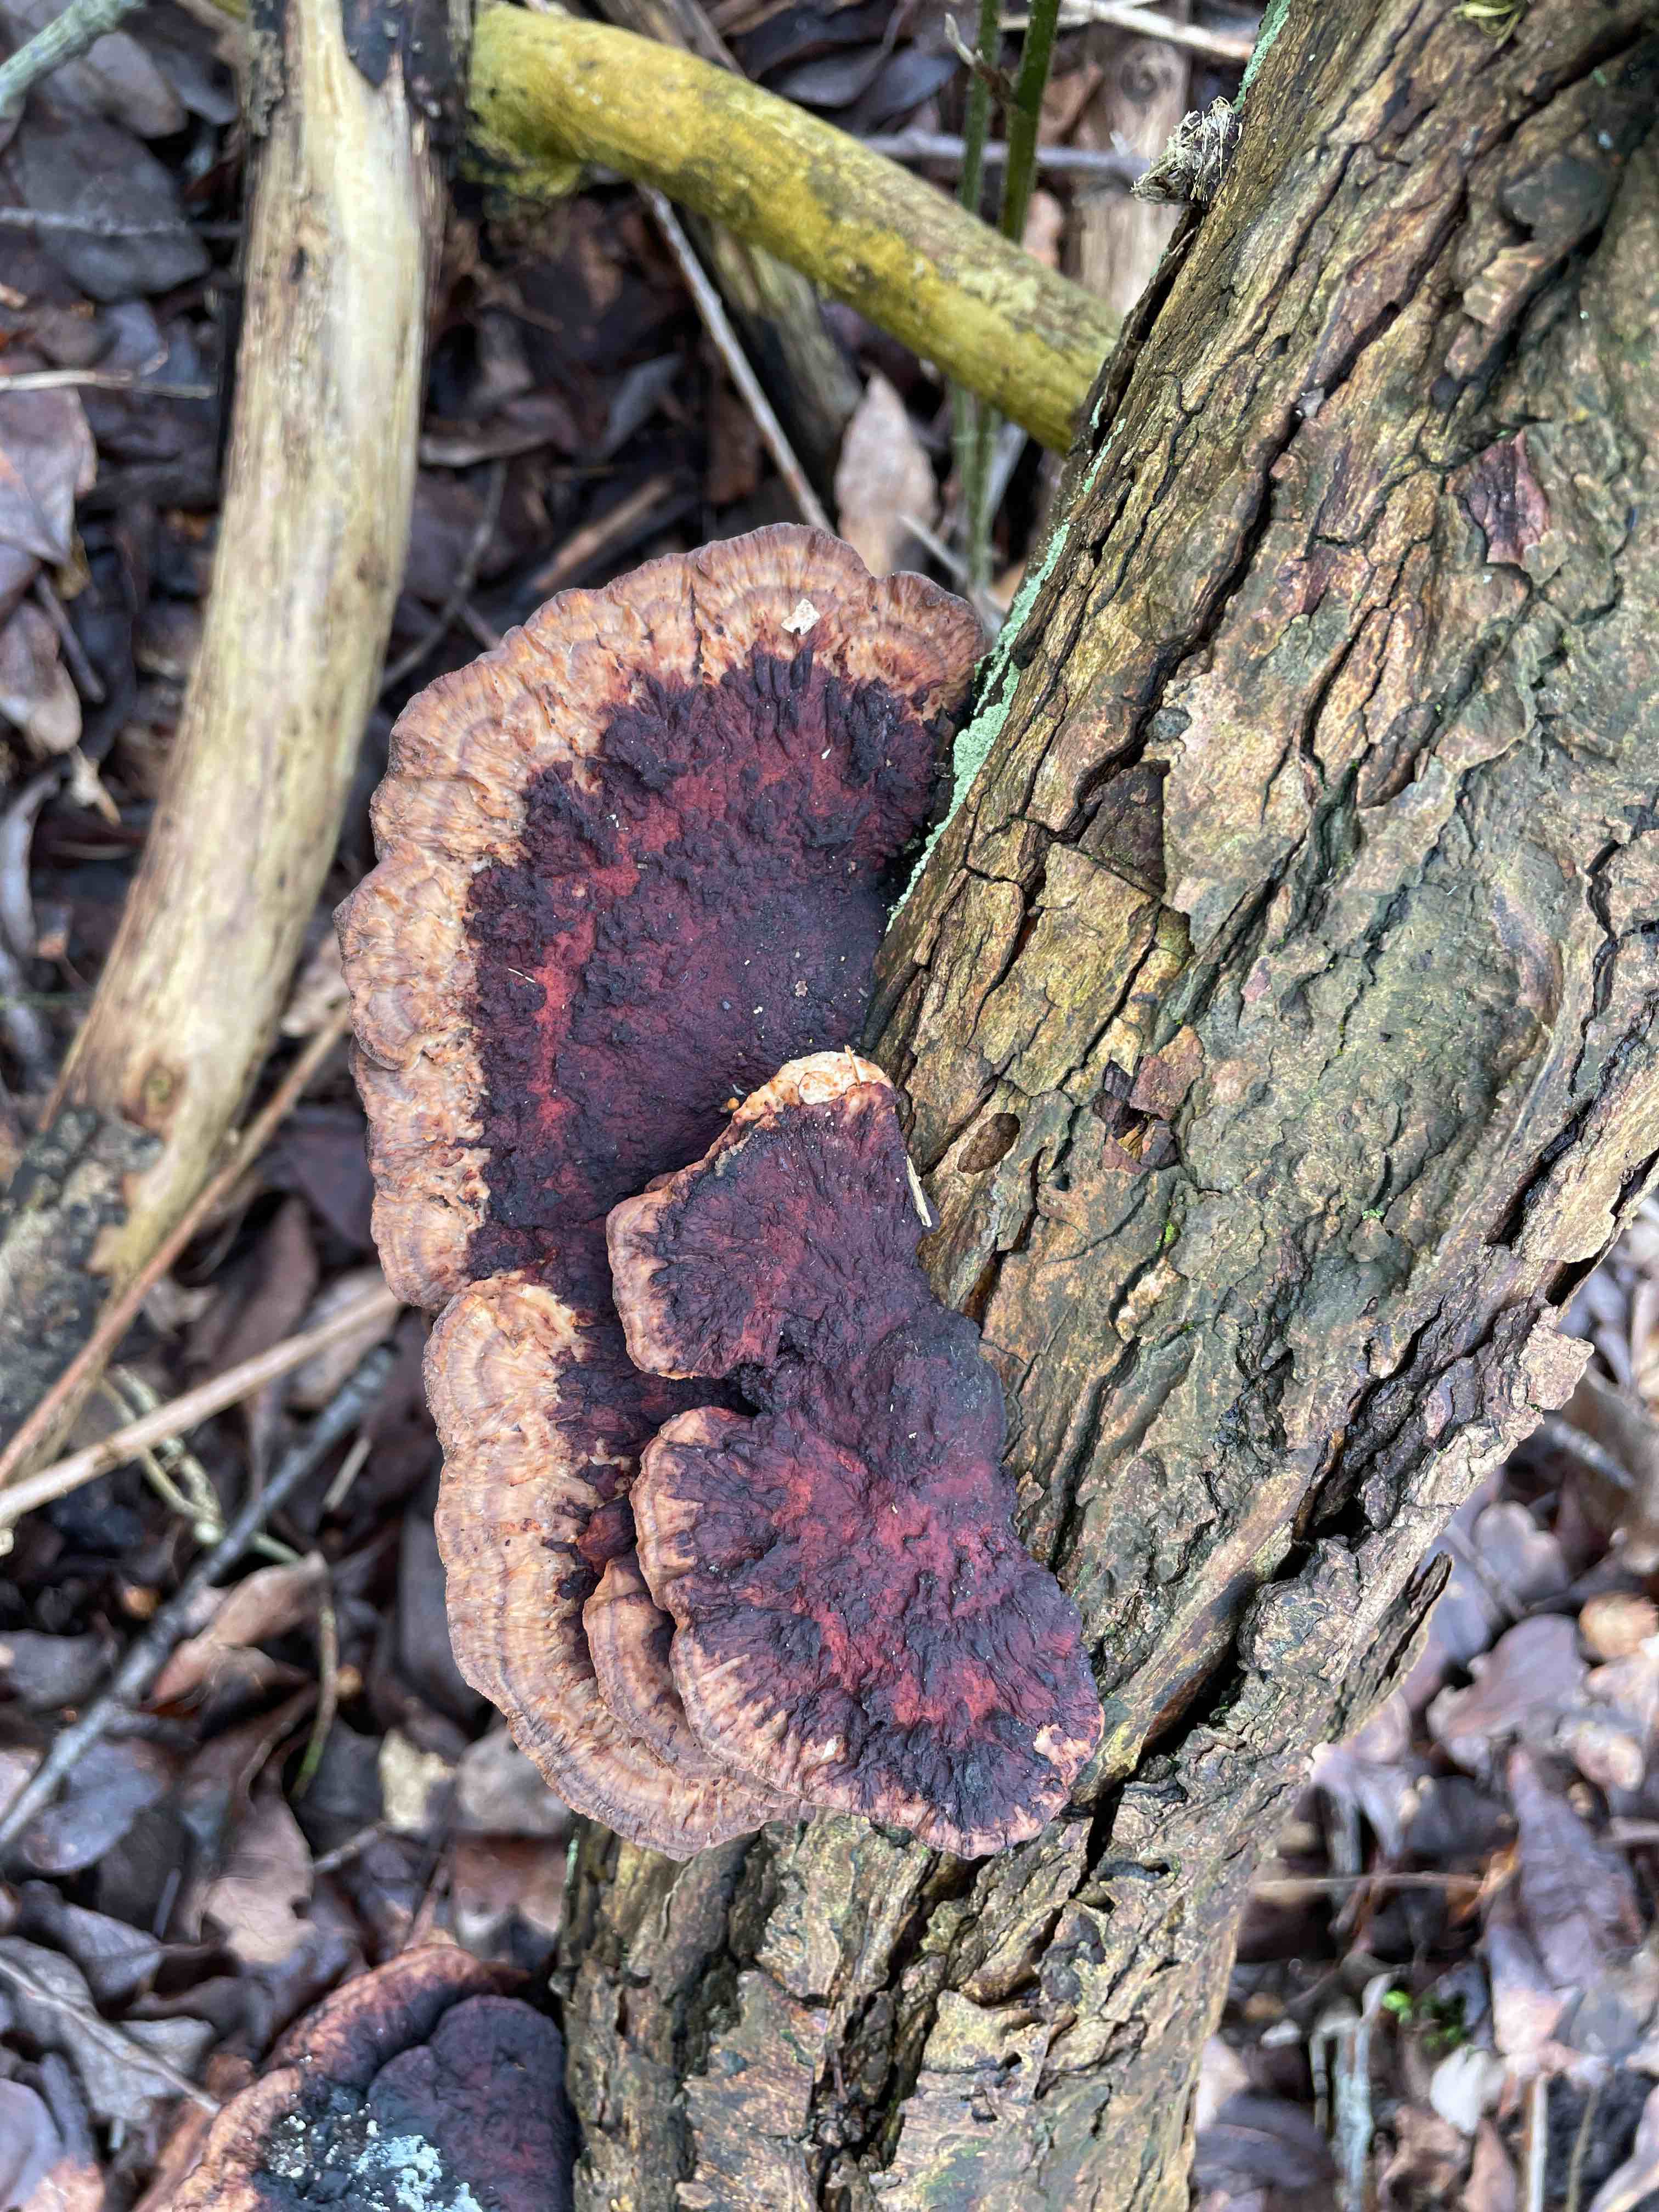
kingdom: Fungi
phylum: Basidiomycota
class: Agaricomycetes
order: Polyporales
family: Polyporaceae
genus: Daedaleopsis
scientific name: Daedaleopsis confragosa
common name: rødmende læderporesvamp
